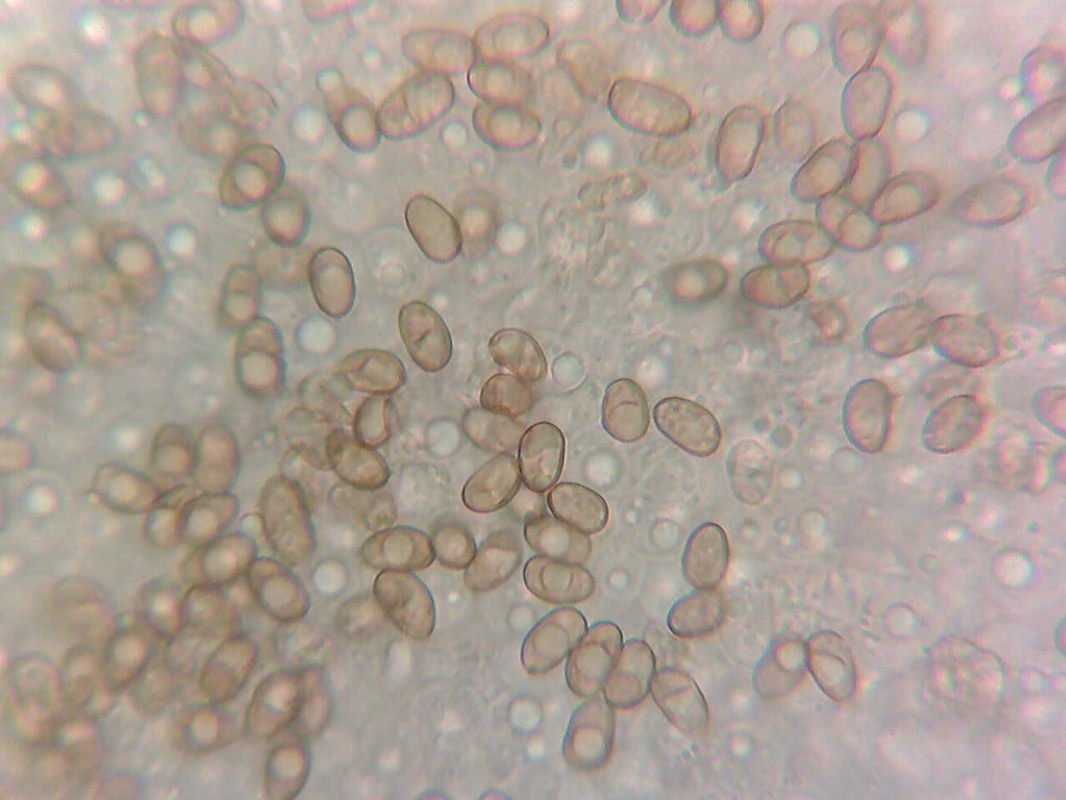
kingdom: Fungi
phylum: Basidiomycota
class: Agaricomycetes
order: Agaricales
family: Inocybaceae
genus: Pseudosperma
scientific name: Pseudosperma
